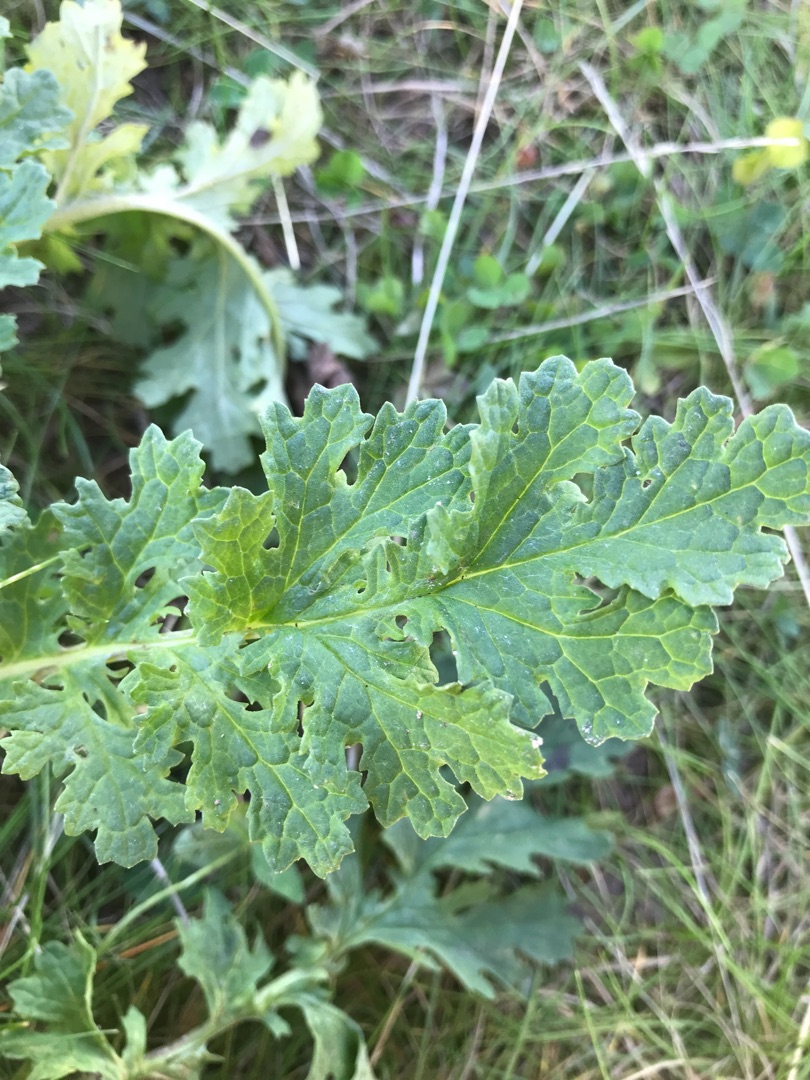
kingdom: Plantae
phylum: Tracheophyta
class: Magnoliopsida
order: Asterales
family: Asteraceae
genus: Jacobaea
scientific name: Jacobaea vulgaris
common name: Eng-brandbæger
